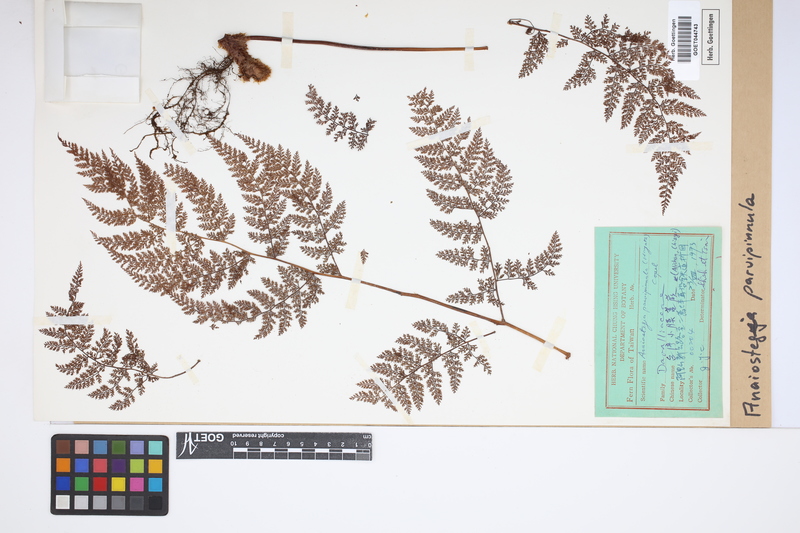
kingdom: Plantae
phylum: Tracheophyta
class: Polypodiopsida
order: Polypodiales
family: Davalliaceae
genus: Davallia
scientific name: Davallia perdurans
